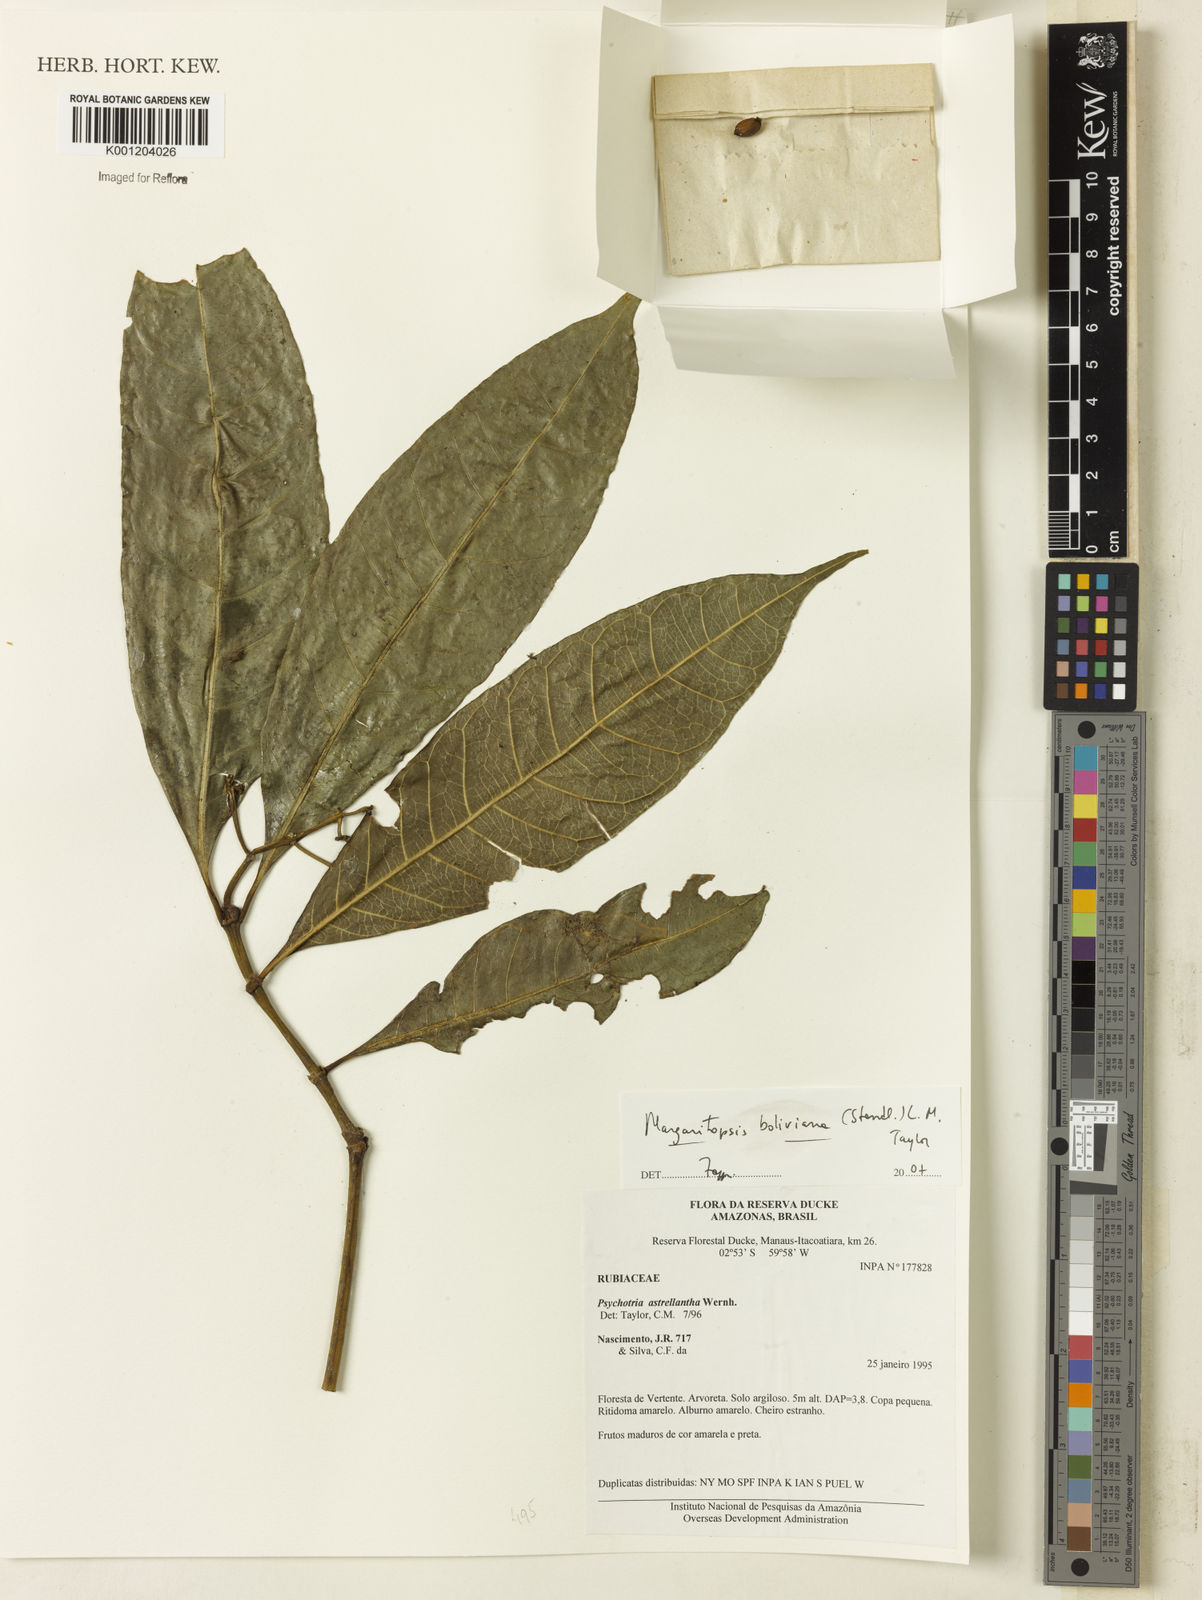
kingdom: Plantae
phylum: Tracheophyta
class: Magnoliopsida
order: Gentianales
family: Rubiaceae
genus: Eumachia
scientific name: Eumachia boliviana
